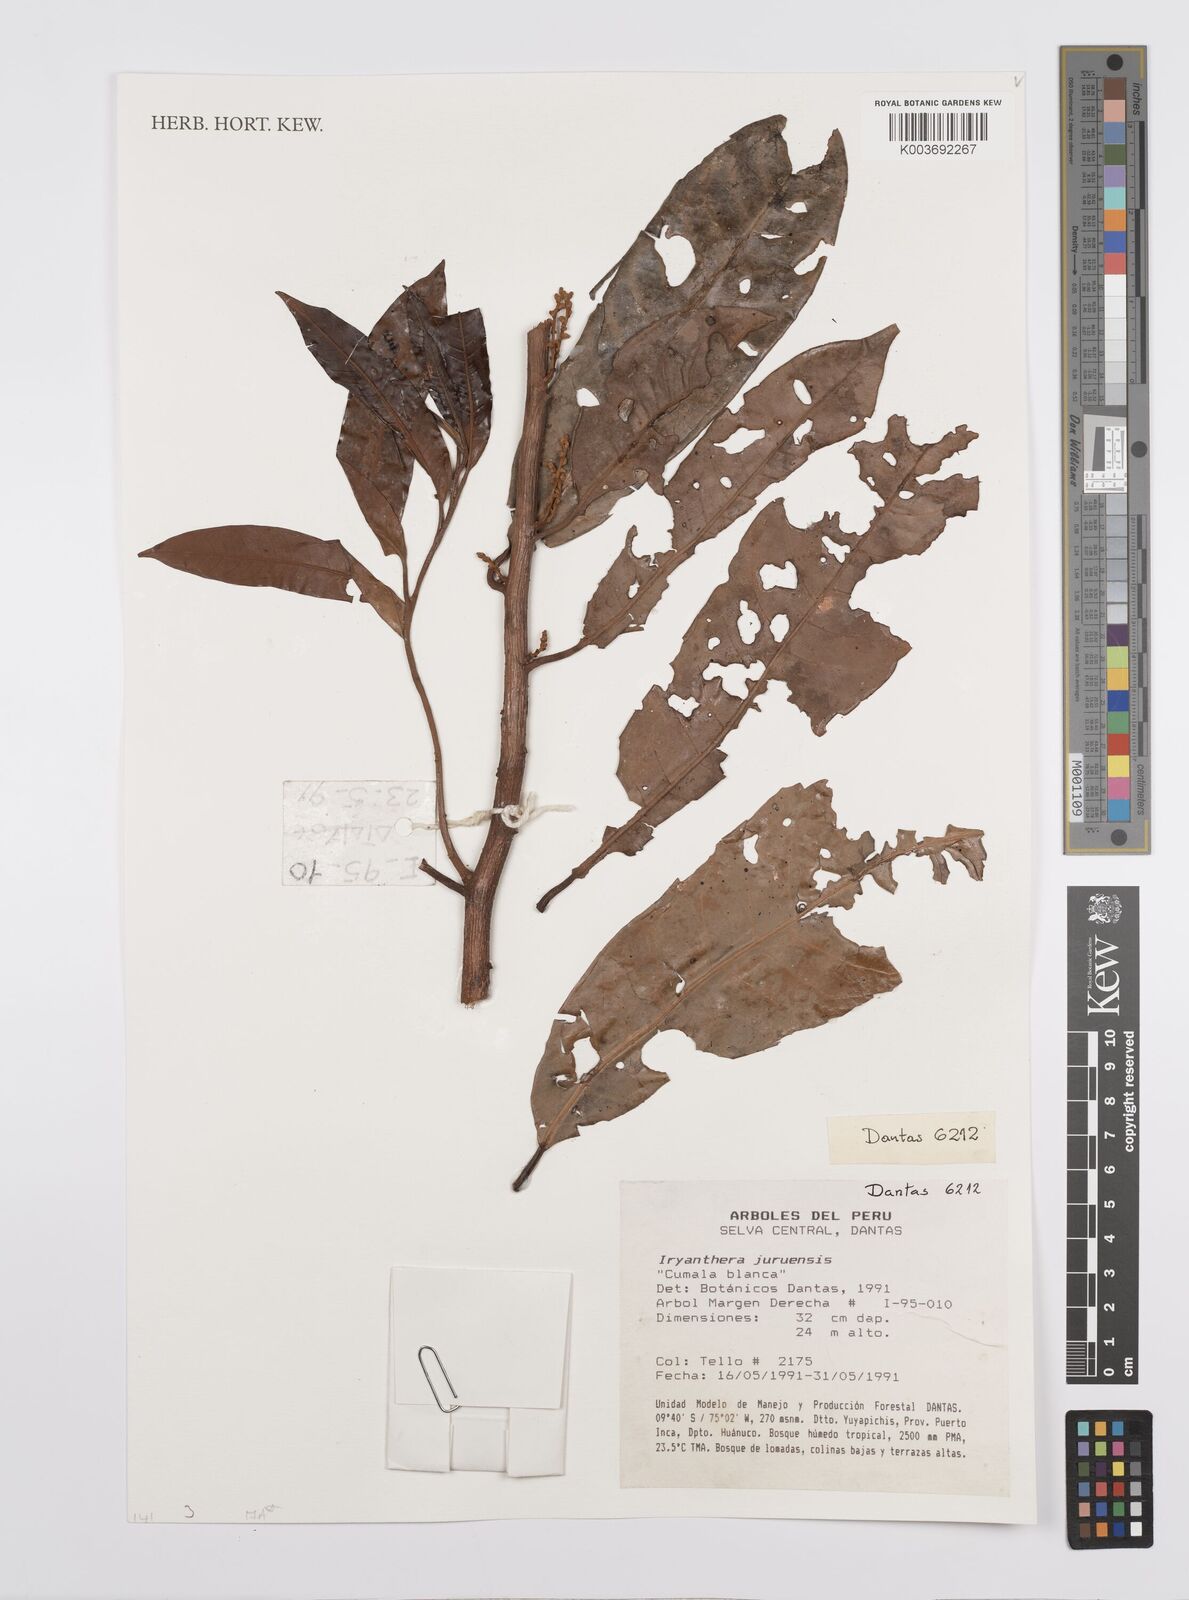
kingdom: Plantae
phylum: Tracheophyta
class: Magnoliopsida
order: Magnoliales
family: Myristicaceae
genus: Iryanthera
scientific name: Iryanthera juruensis
